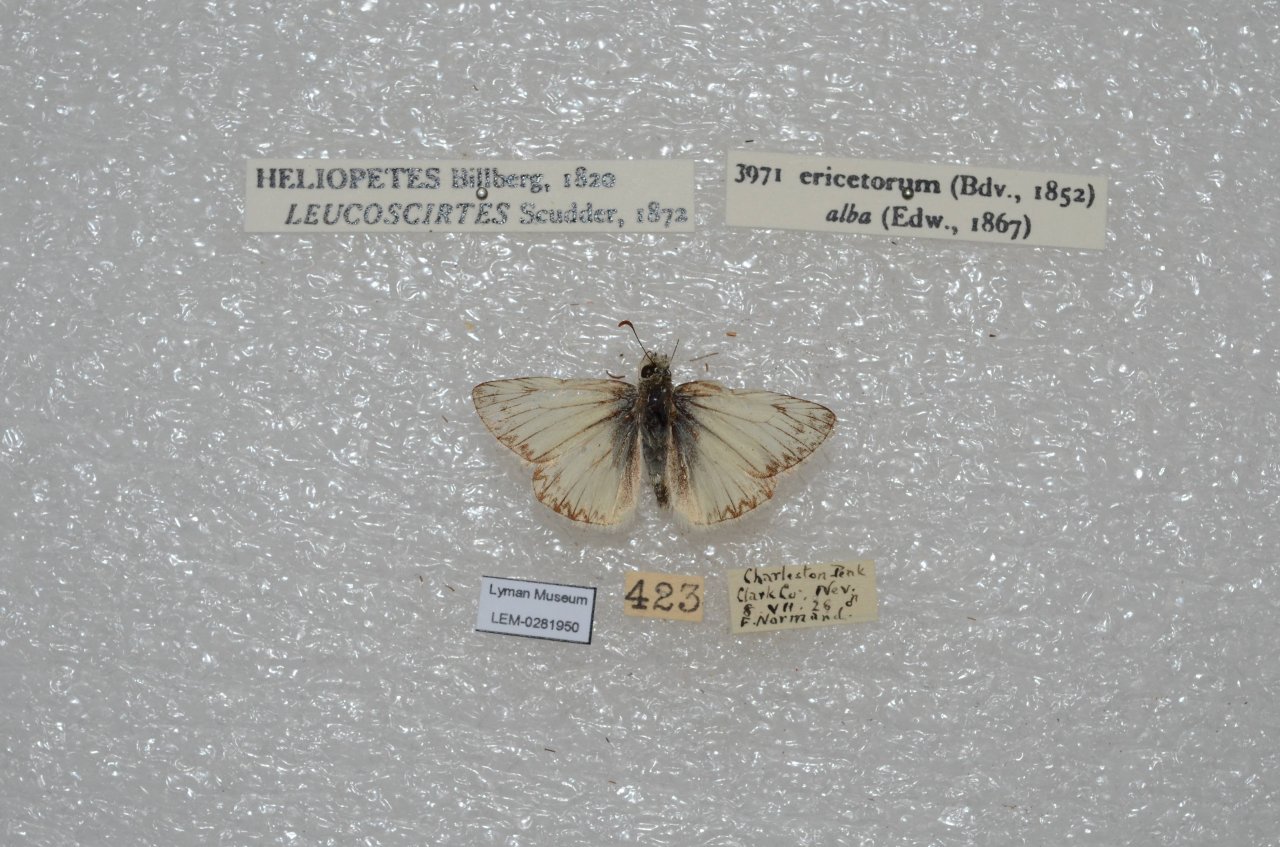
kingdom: Animalia
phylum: Arthropoda
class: Insecta
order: Lepidoptera
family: Hesperiidae
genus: Heliopetes
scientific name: Heliopetes ericetorum
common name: Northern White-Skipper
